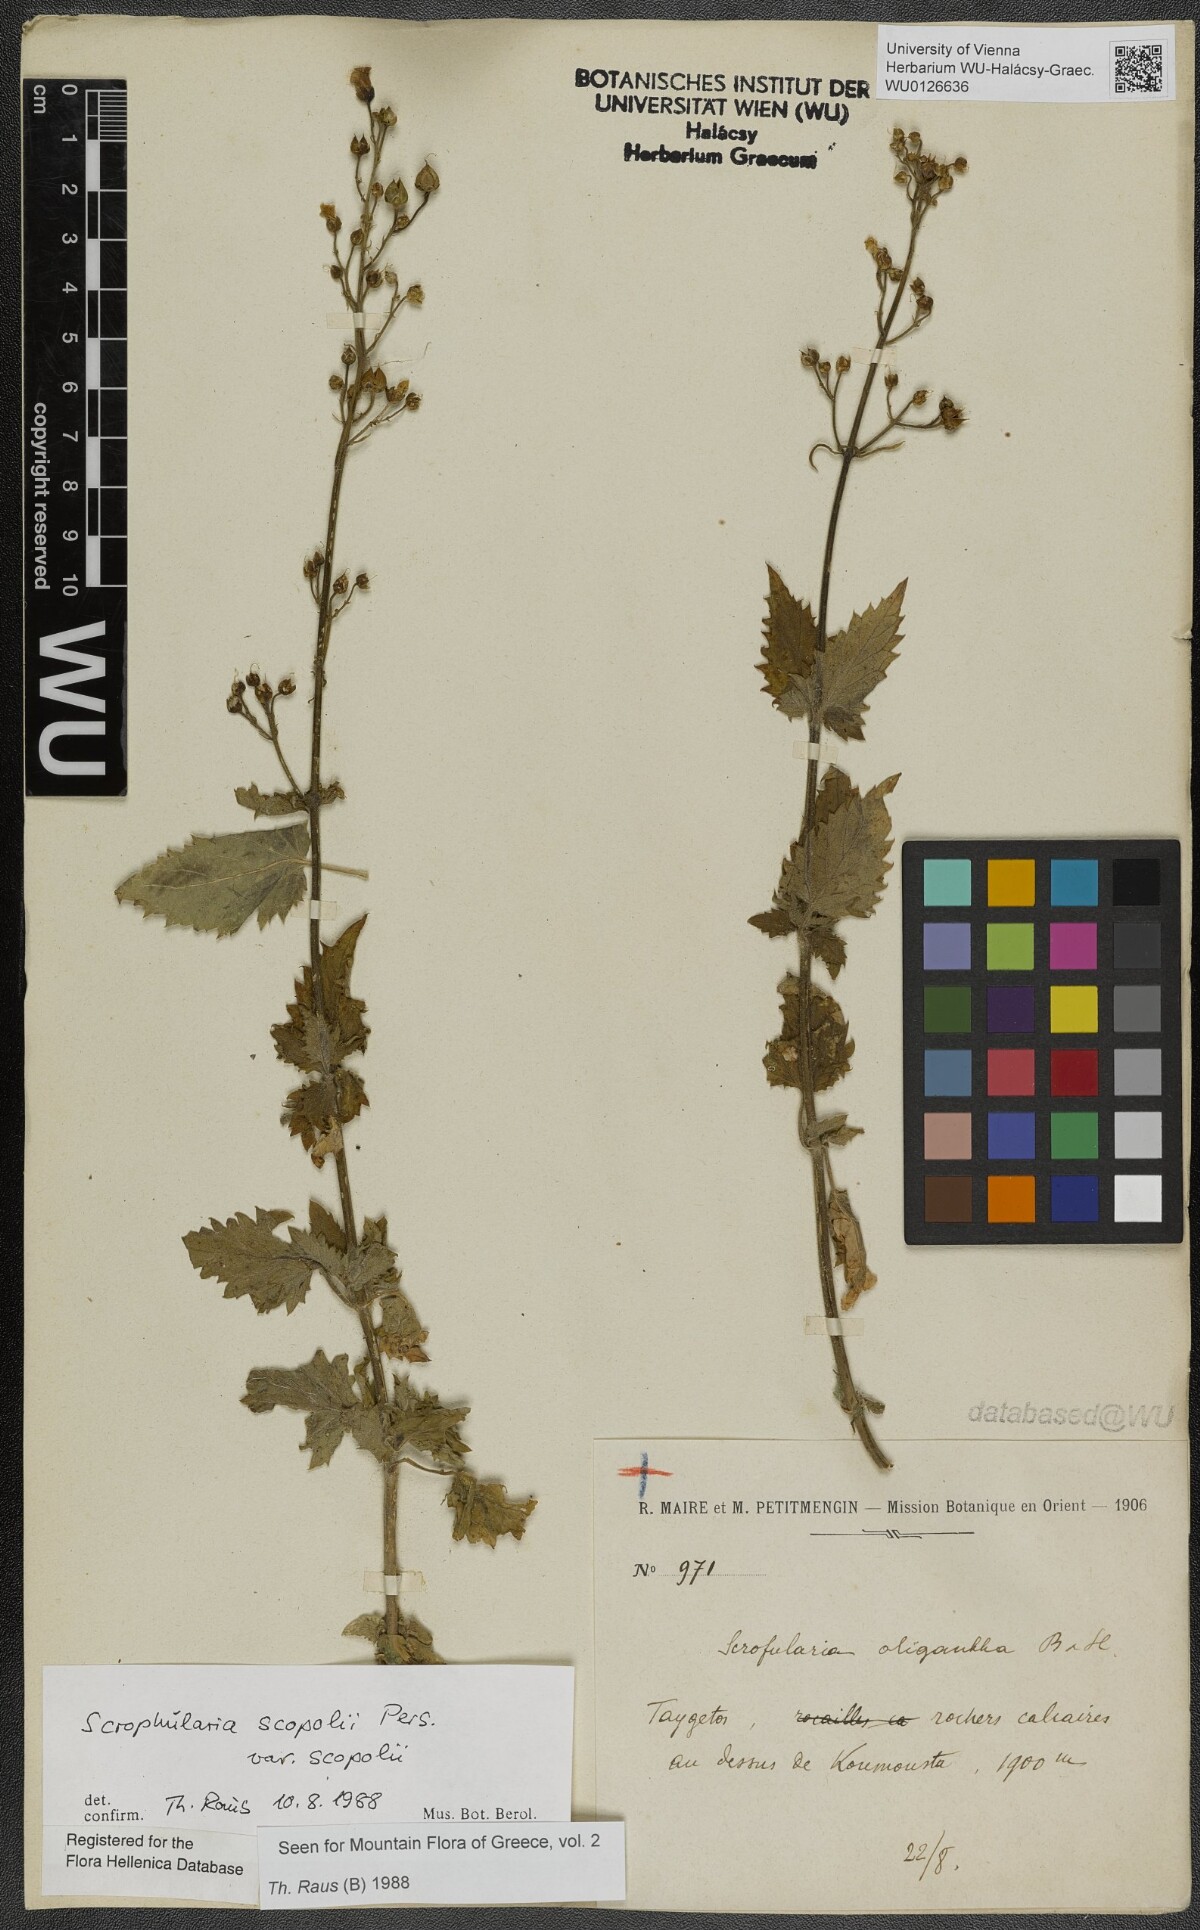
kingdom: Plantae
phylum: Tracheophyta
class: Magnoliopsida
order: Lamiales
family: Scrophulariaceae
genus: Scrophularia
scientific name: Scrophularia scopolii
